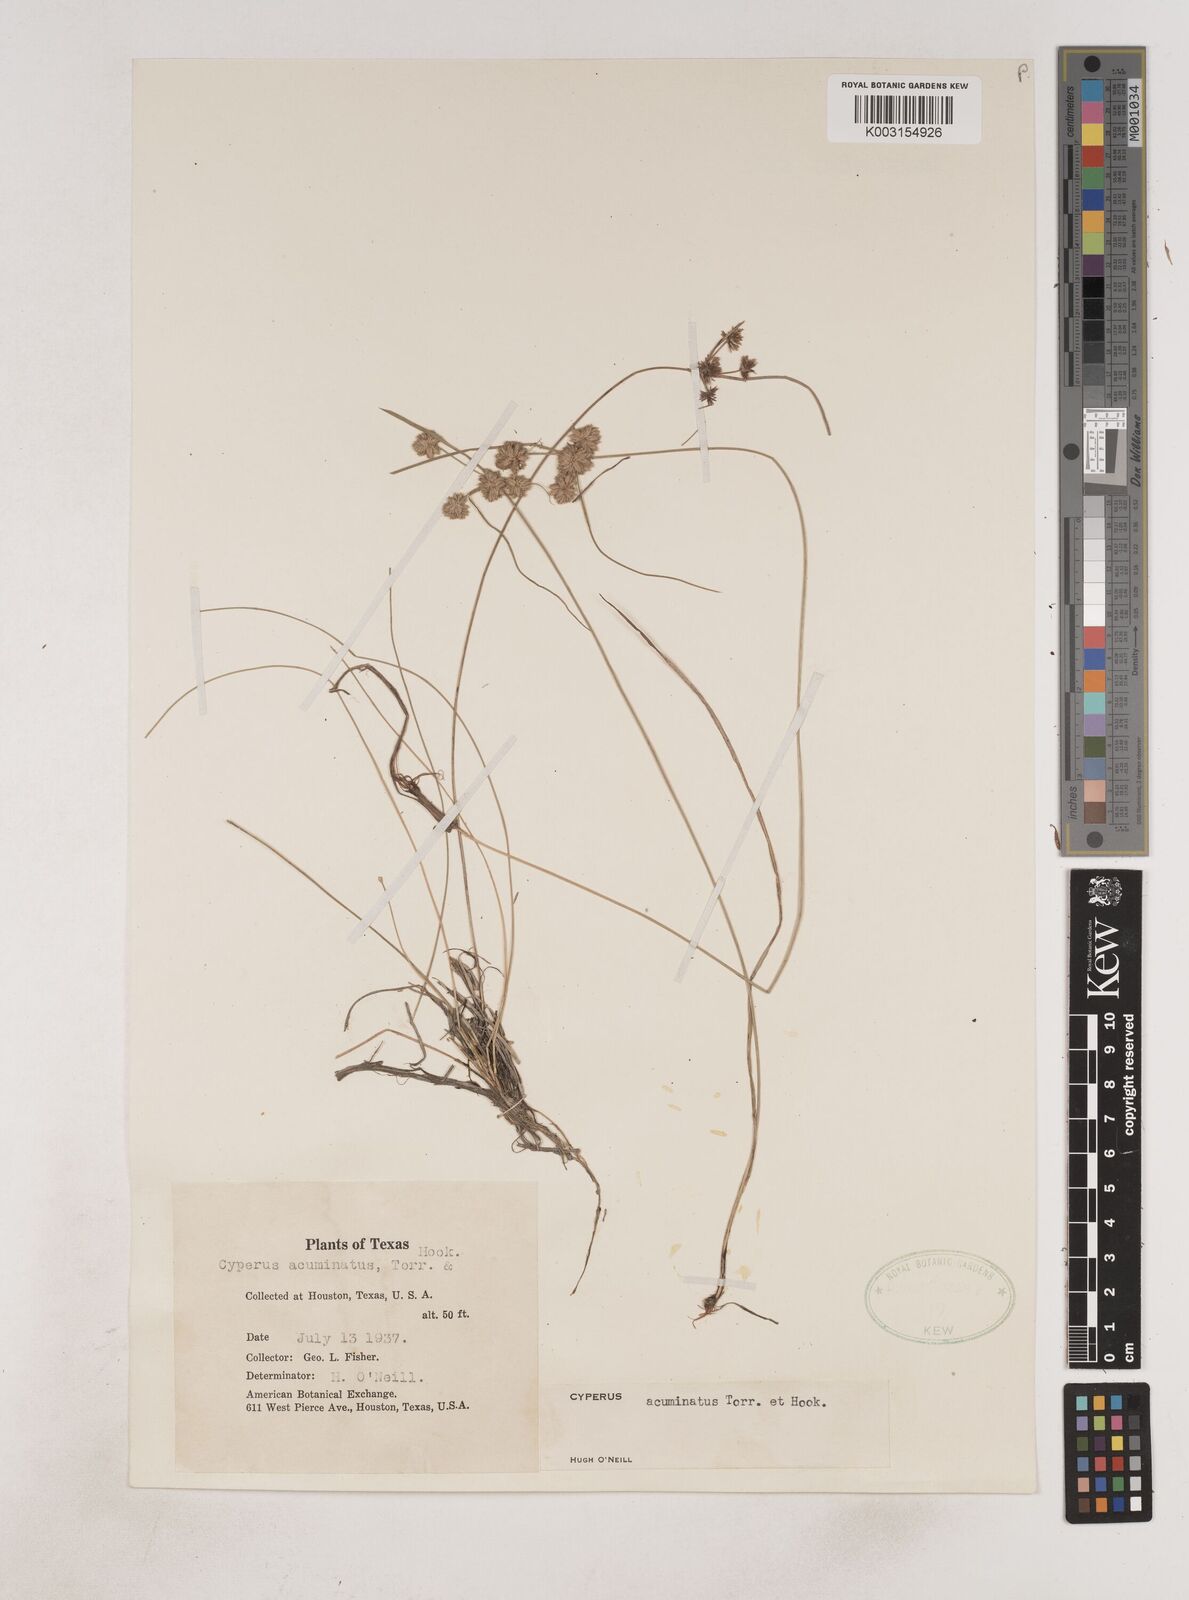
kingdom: Plantae
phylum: Tracheophyta
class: Liliopsida
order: Poales
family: Cyperaceae
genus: Cyperus
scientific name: Cyperus acuminatus
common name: Short-pointed cyperus
